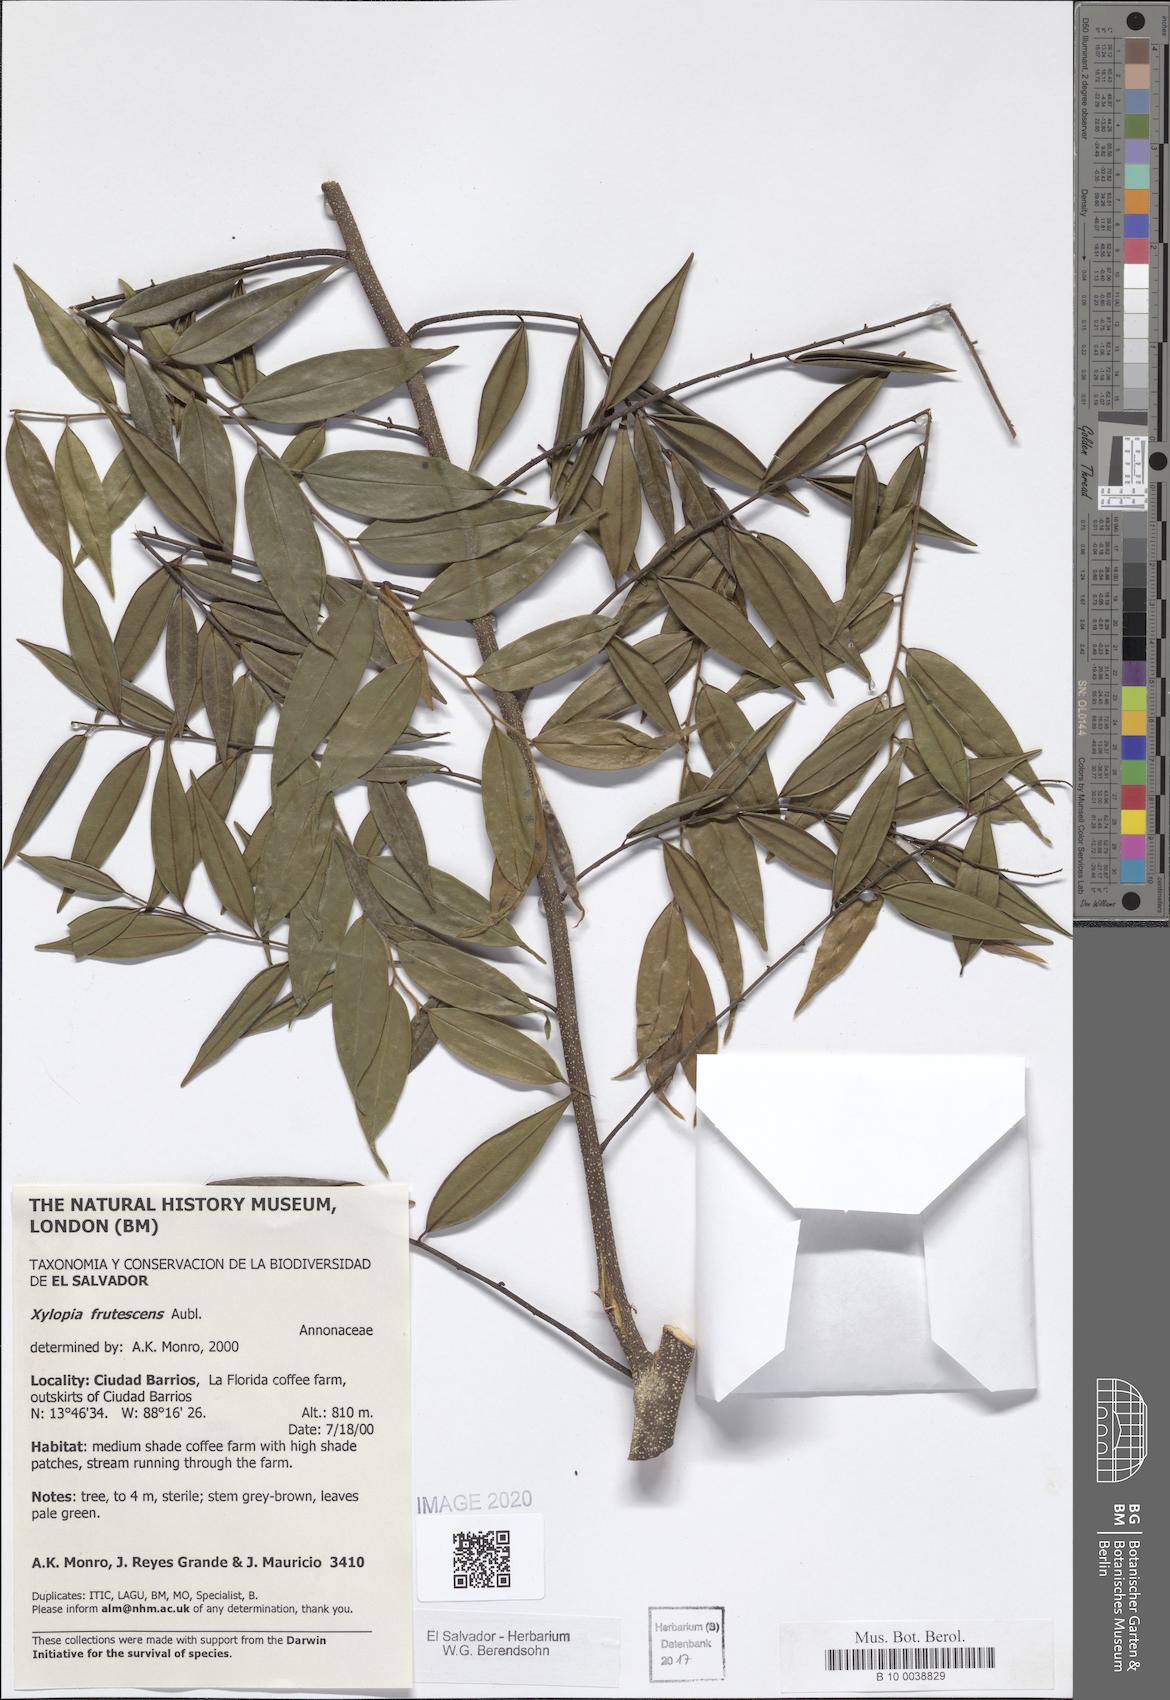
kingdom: Plantae
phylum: Tracheophyta
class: Magnoliopsida
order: Magnoliales
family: Annonaceae
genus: Xylopia
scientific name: Xylopia frutescens
